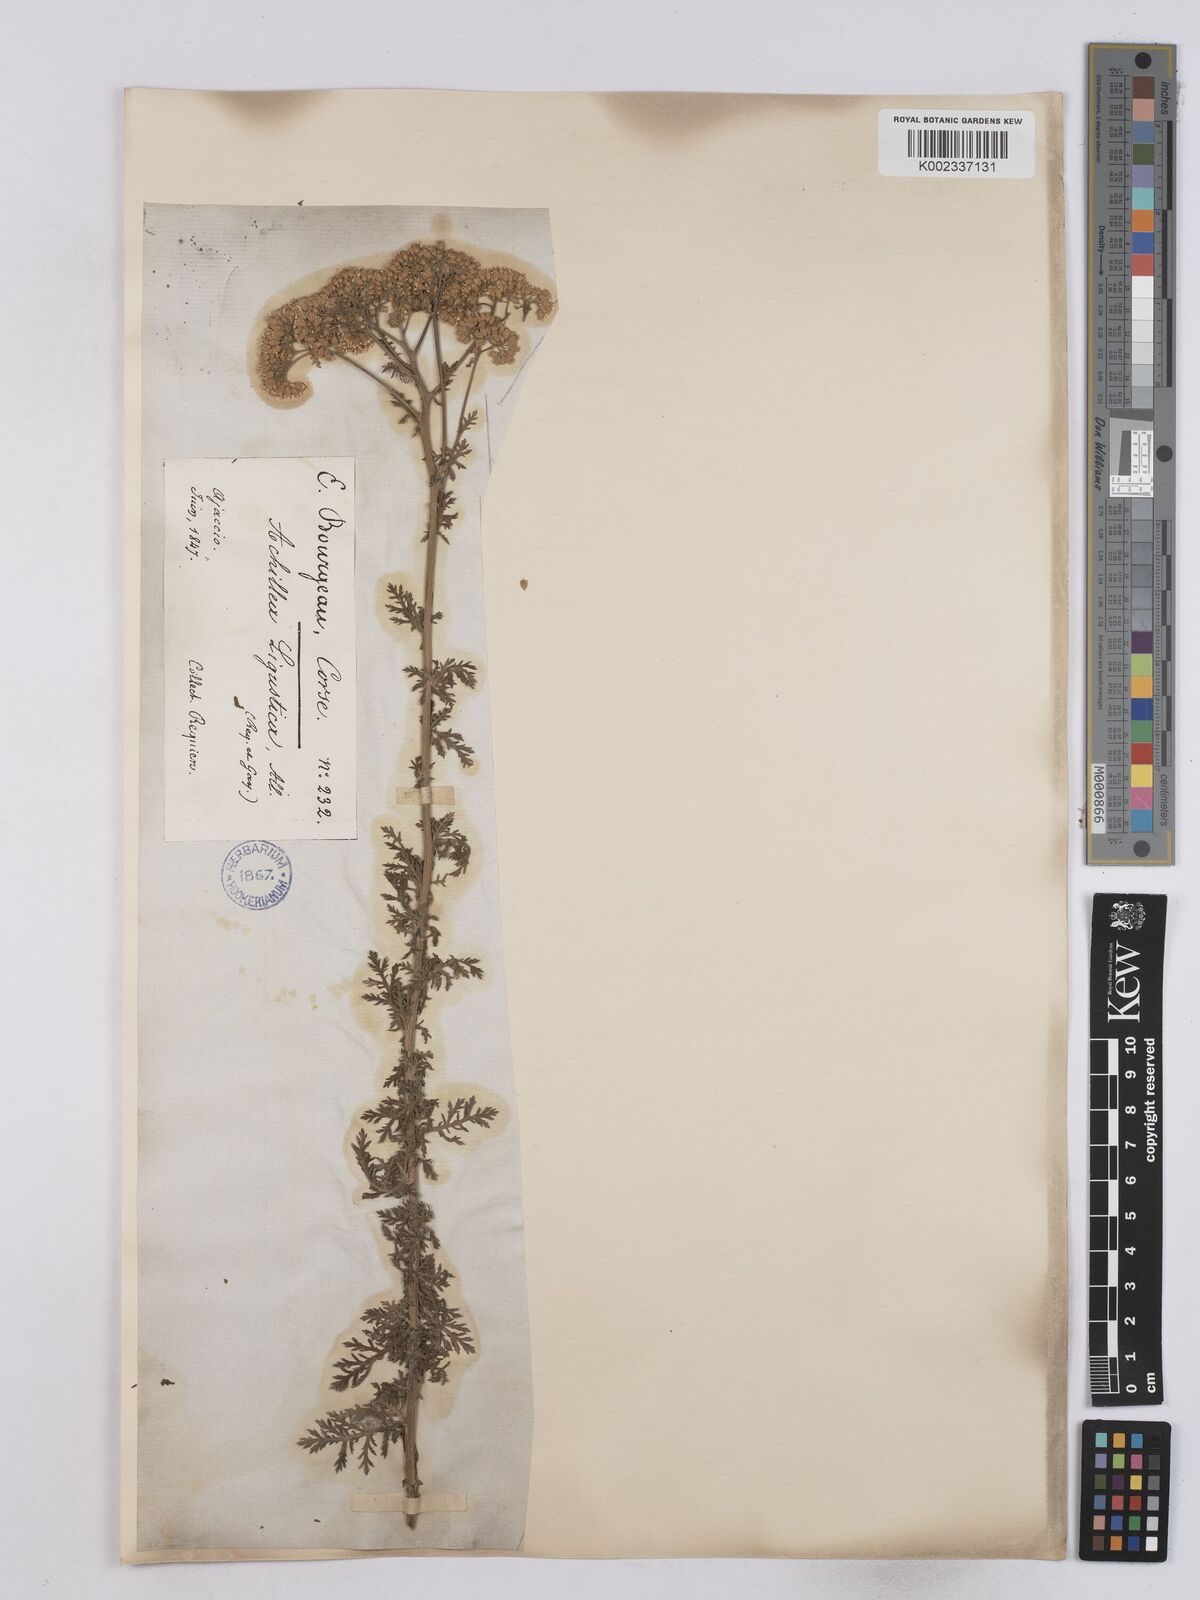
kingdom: Plantae
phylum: Tracheophyta
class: Magnoliopsida
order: Asterales
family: Asteraceae
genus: Achillea
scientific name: Achillea ligustica
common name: Southern yarrow
